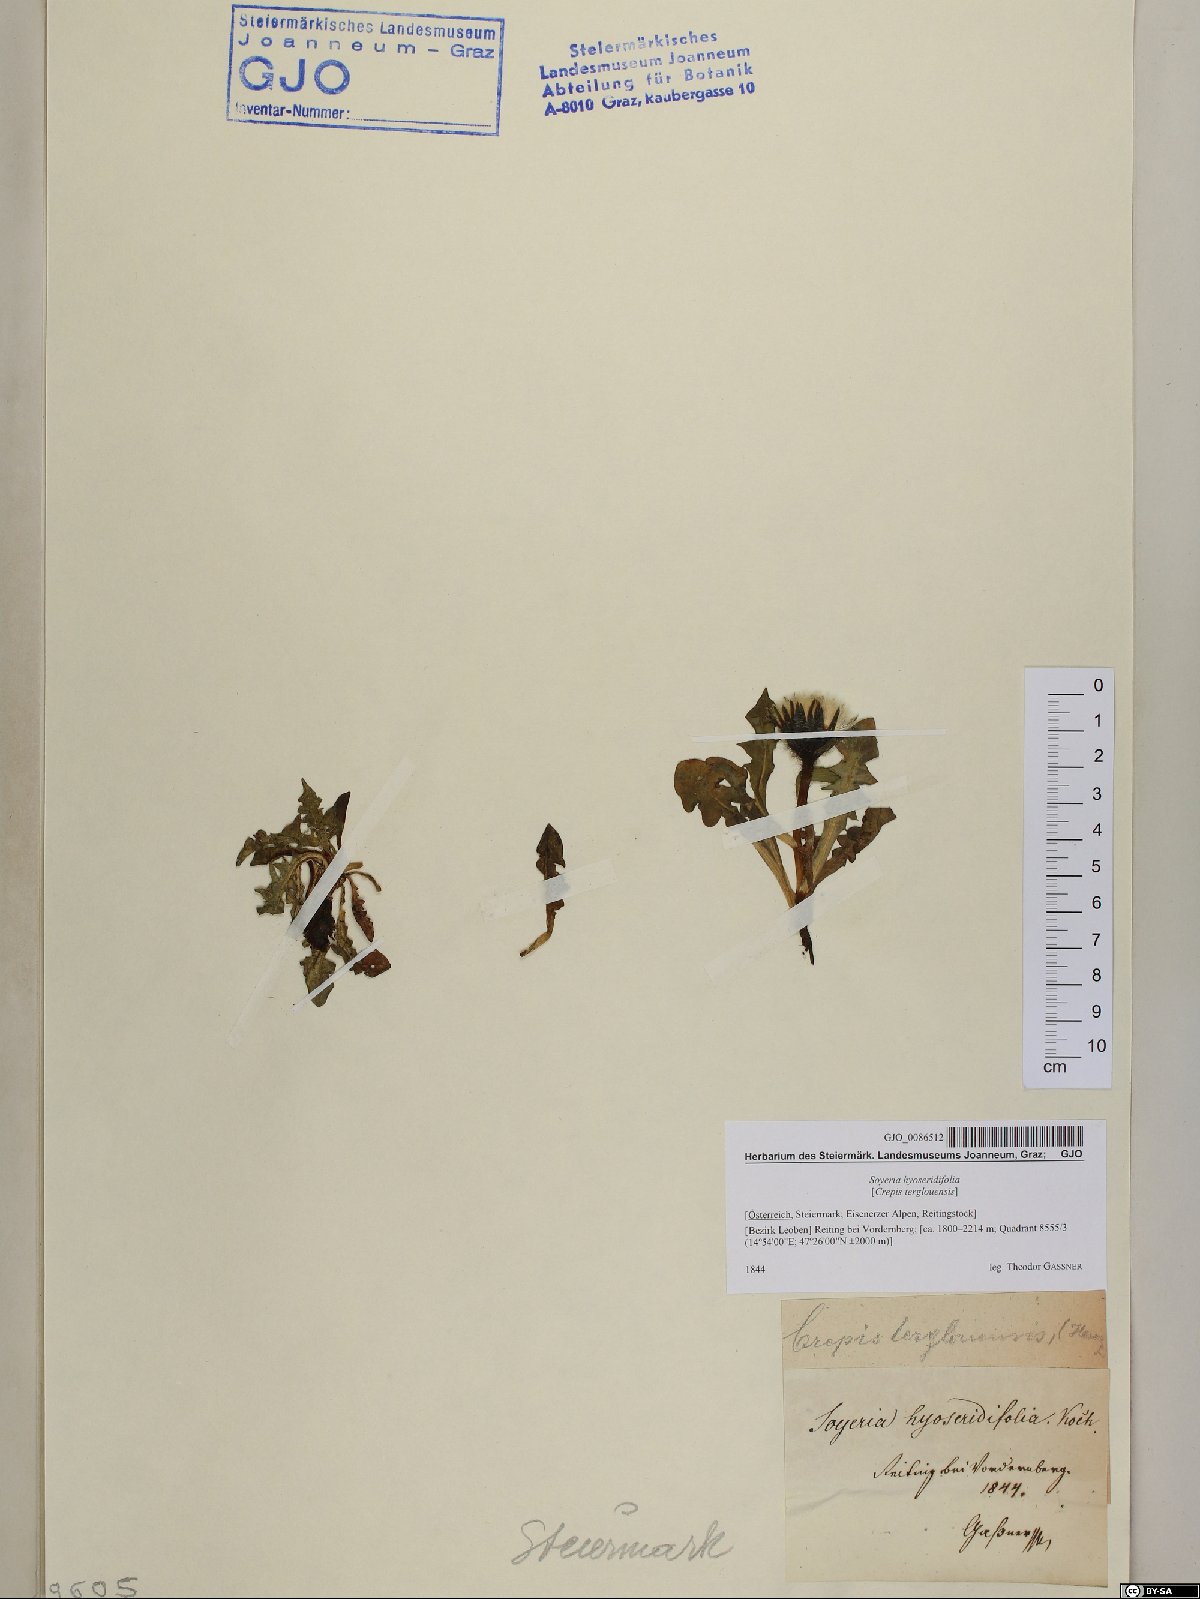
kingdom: Plantae
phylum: Tracheophyta
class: Magnoliopsida
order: Asterales
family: Asteraceae
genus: Crepis
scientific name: Crepis terglouensis
